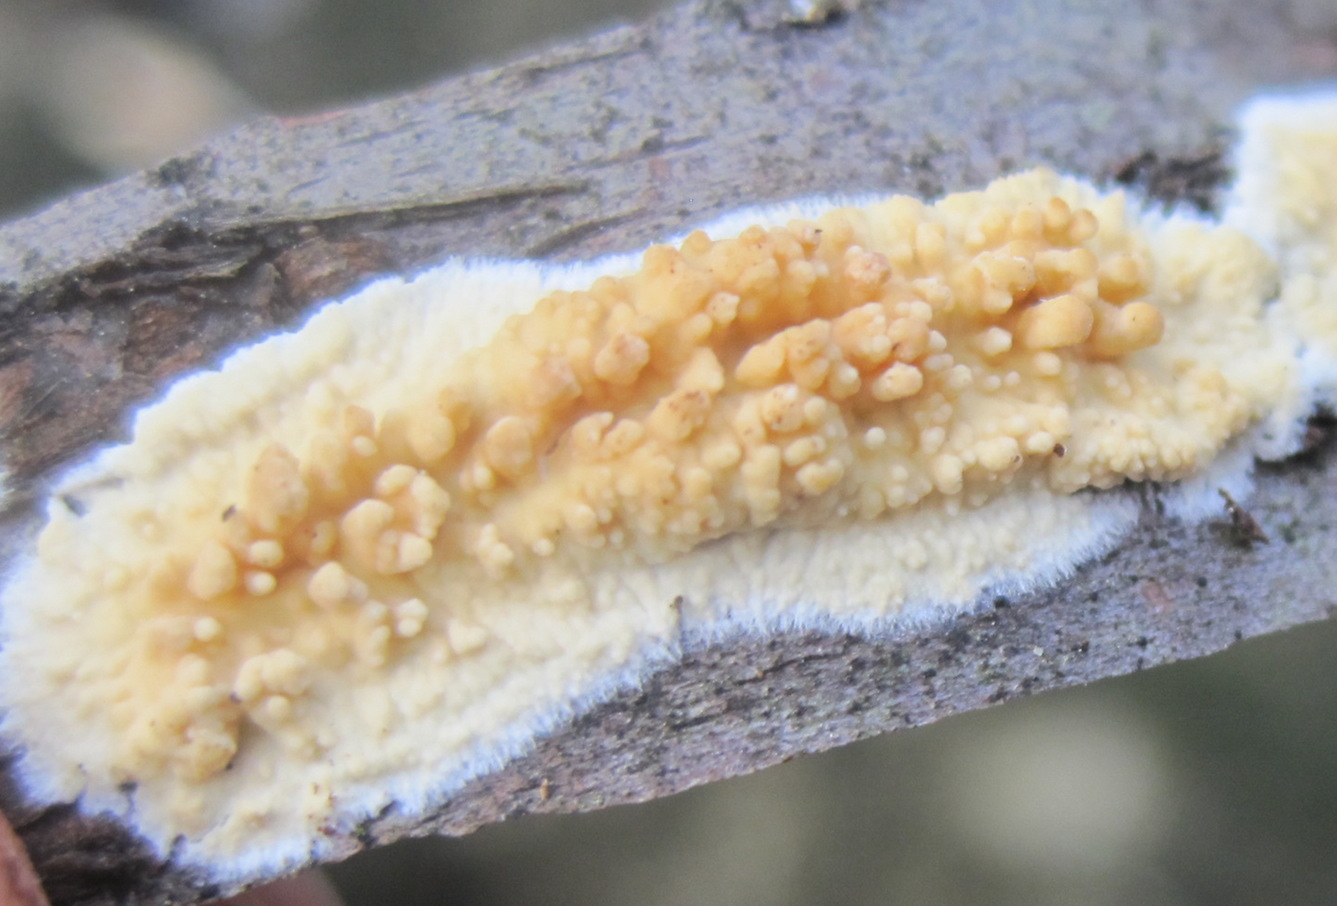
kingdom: Fungi
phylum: Basidiomycota
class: Agaricomycetes
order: Hymenochaetales
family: Schizoporaceae
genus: Xylodon
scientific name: Xylodon radula
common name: grovtandet kalkskind
